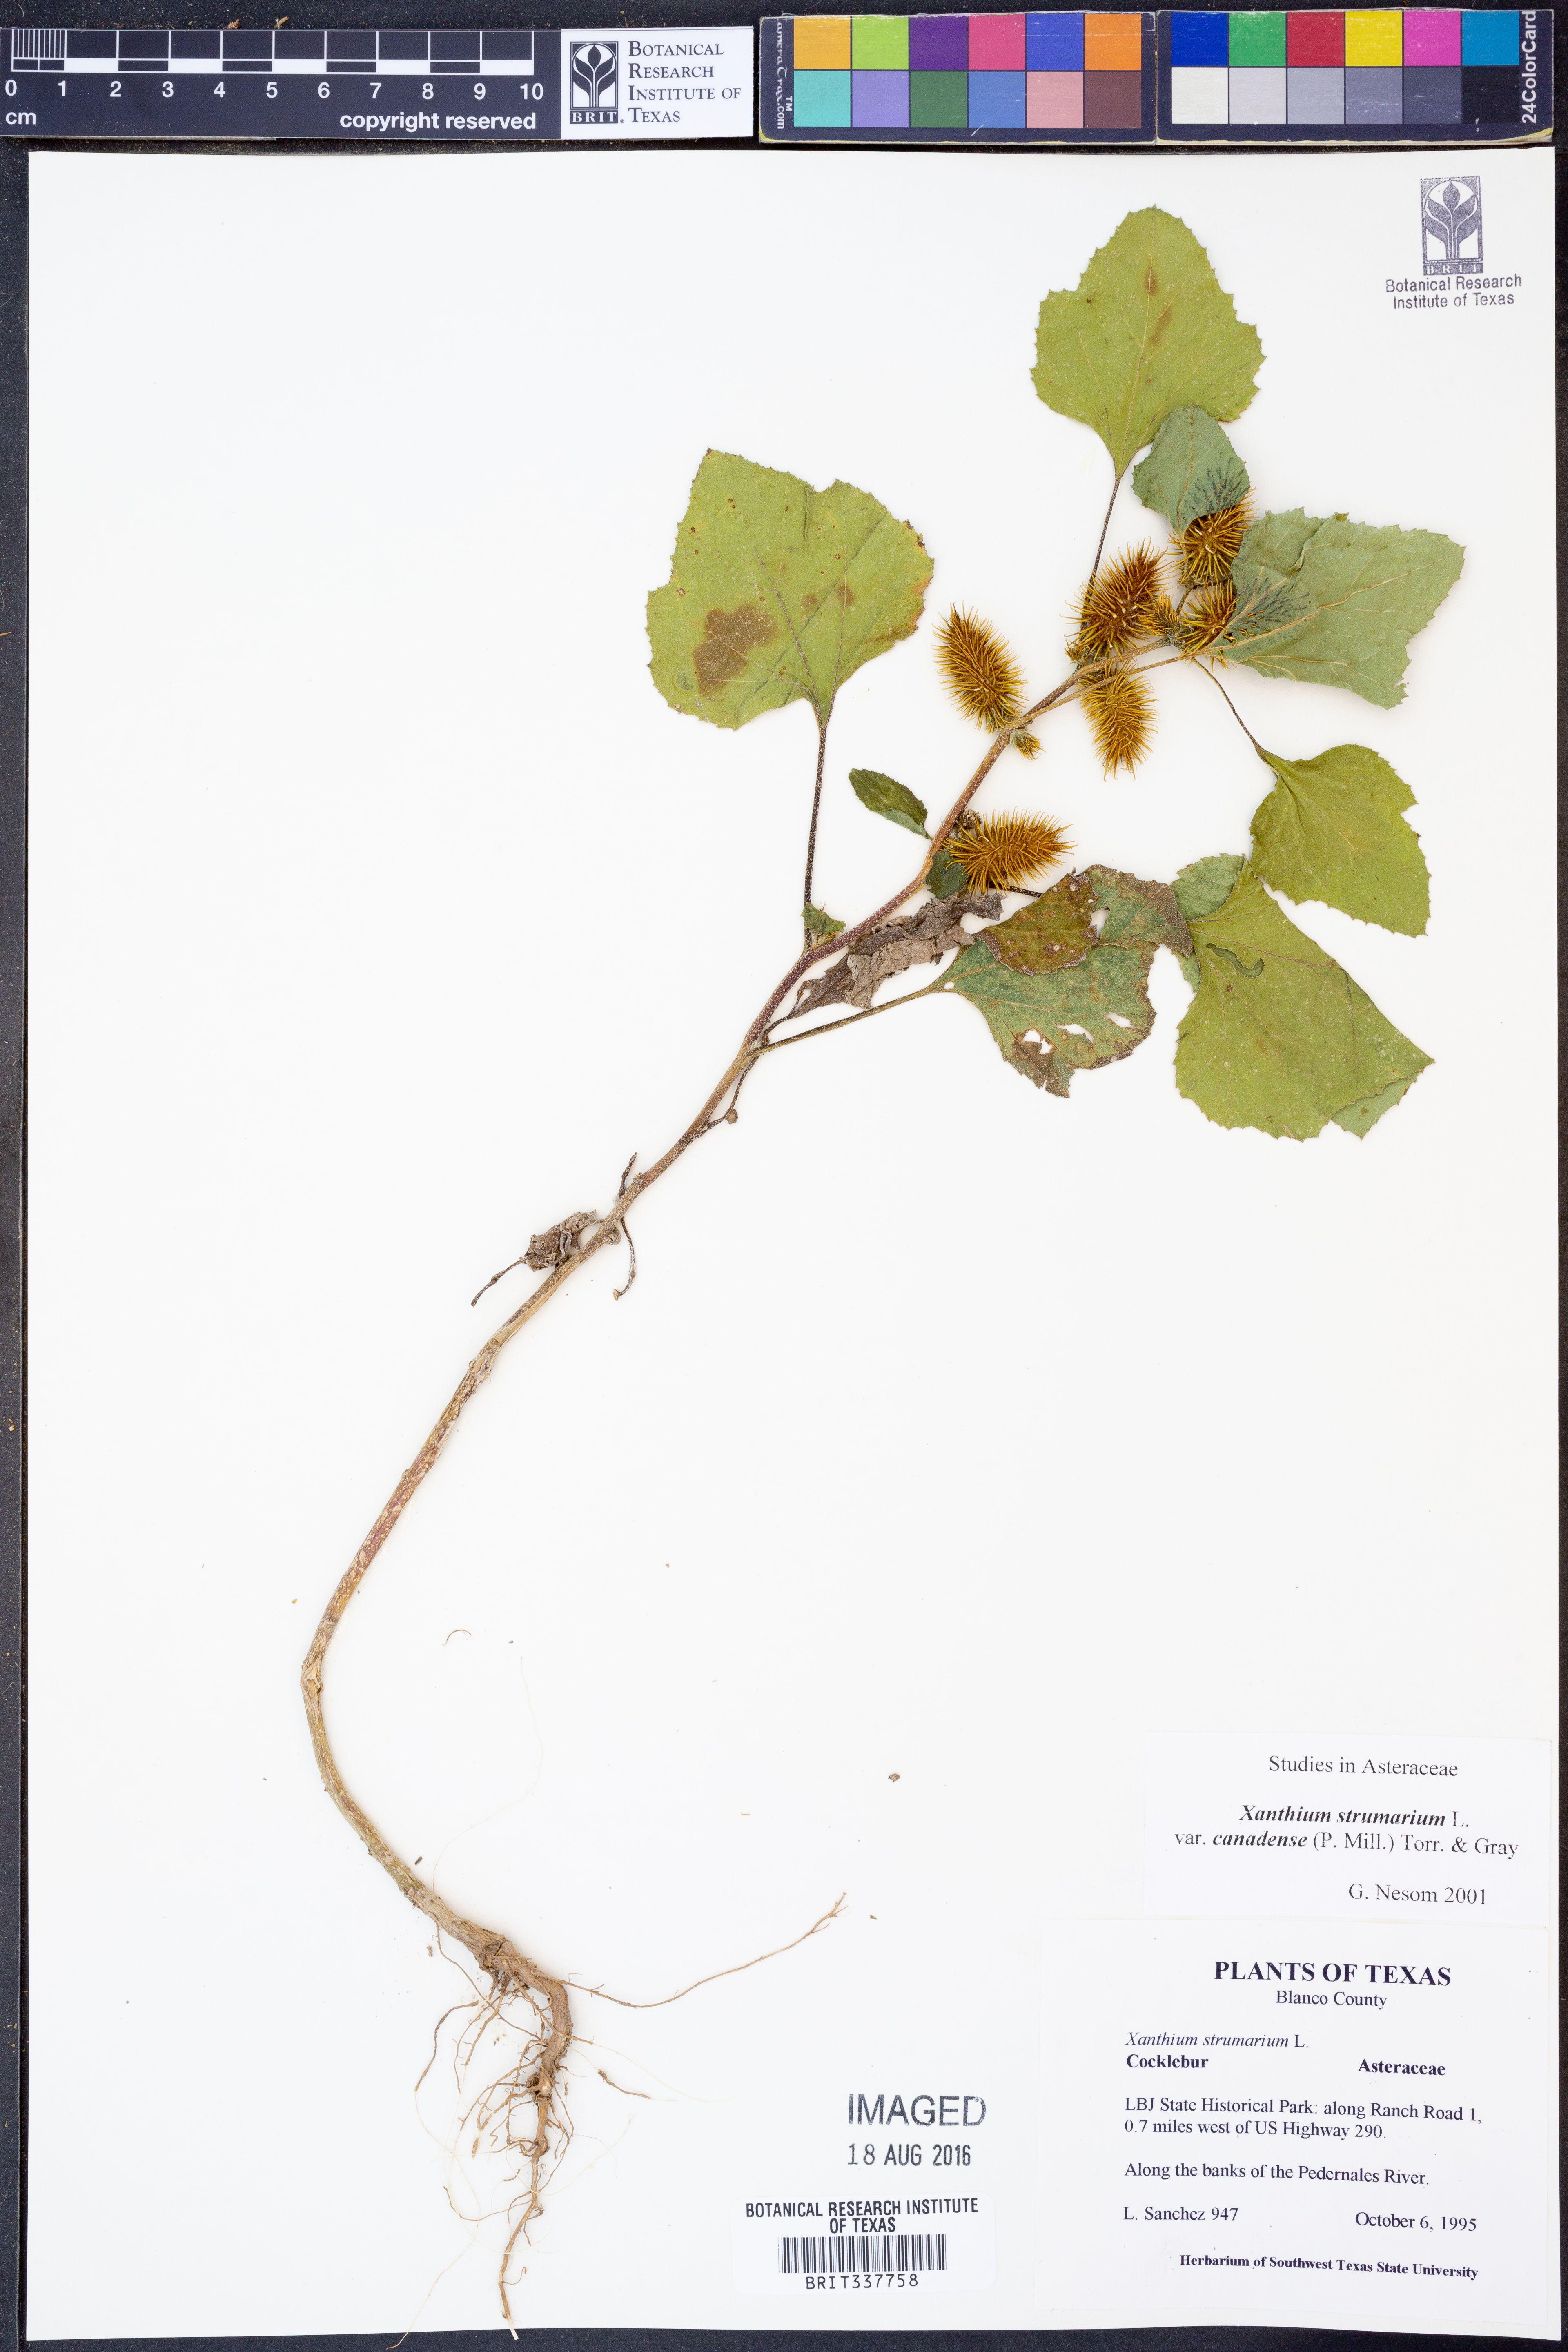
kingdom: Plantae
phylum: Tracheophyta
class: Magnoliopsida
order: Asterales
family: Asteraceae
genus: Xanthium
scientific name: Xanthium orientale
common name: Californian burr
